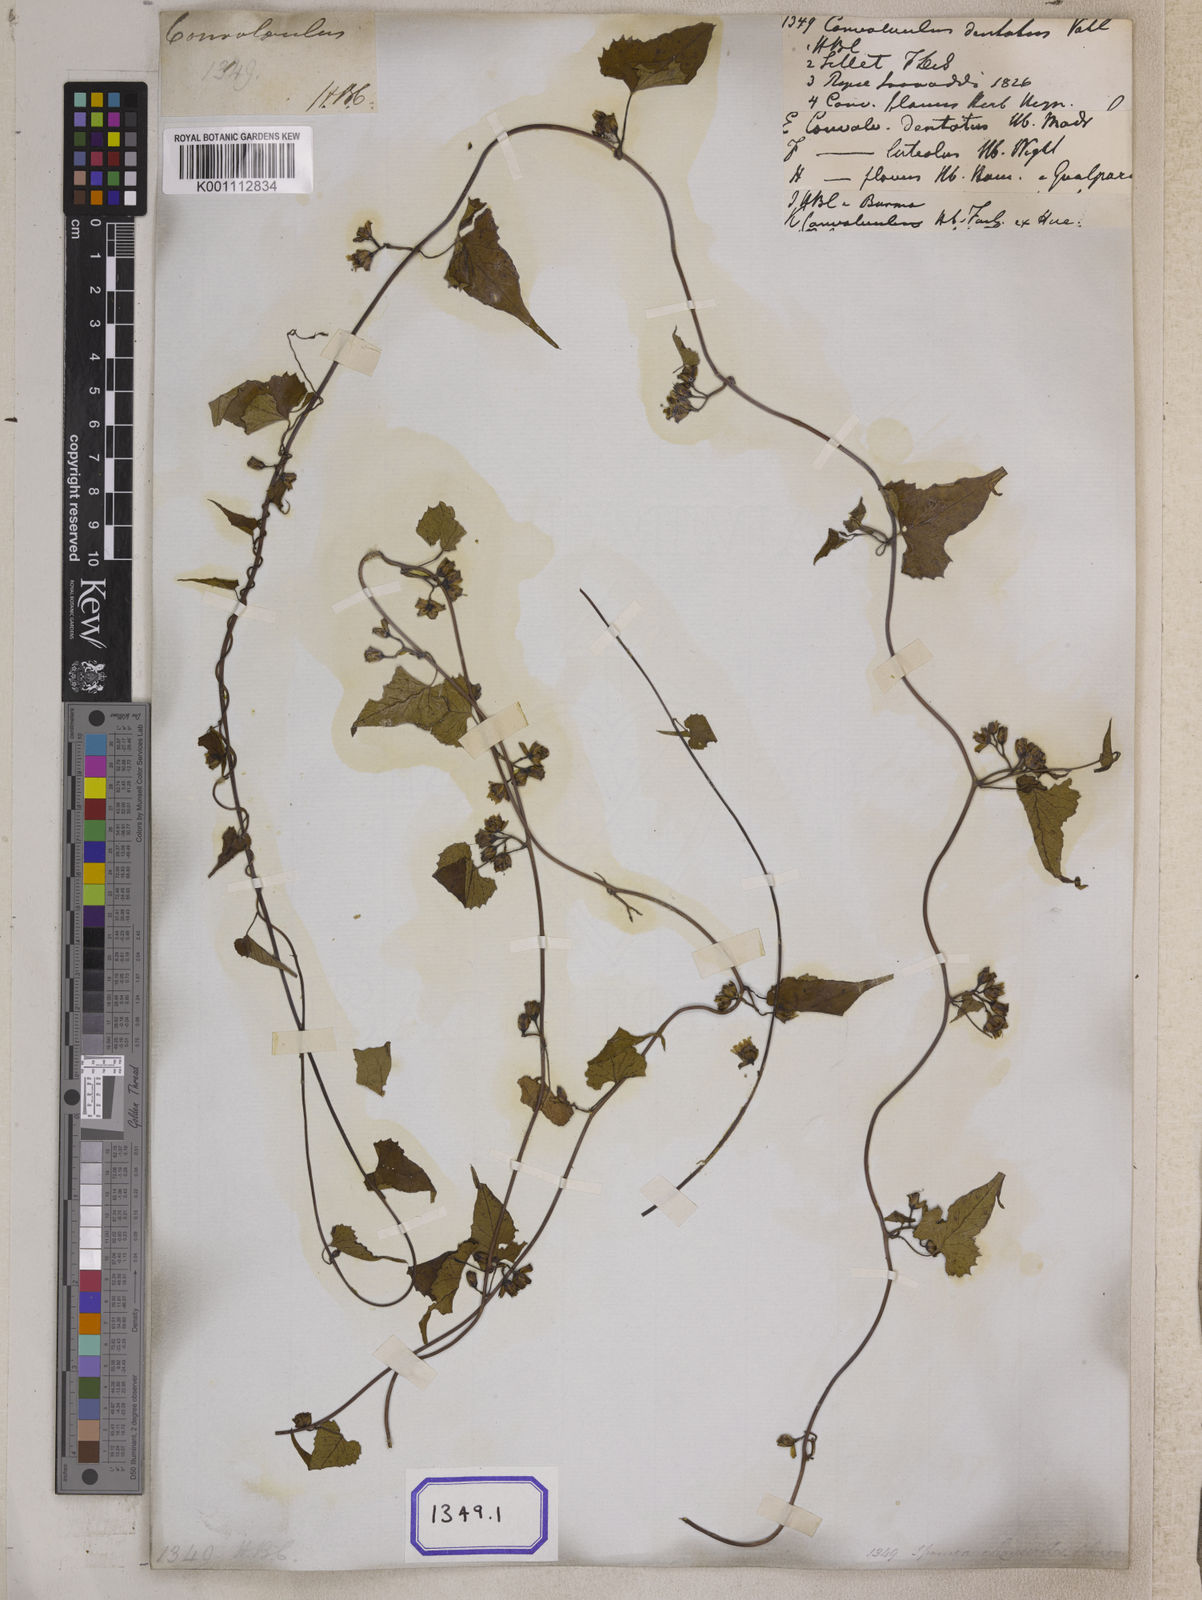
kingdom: Plantae
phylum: Tracheophyta
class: Magnoliopsida
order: Solanales
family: Convolvulaceae
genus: Merremia
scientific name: Merremia hederacea
